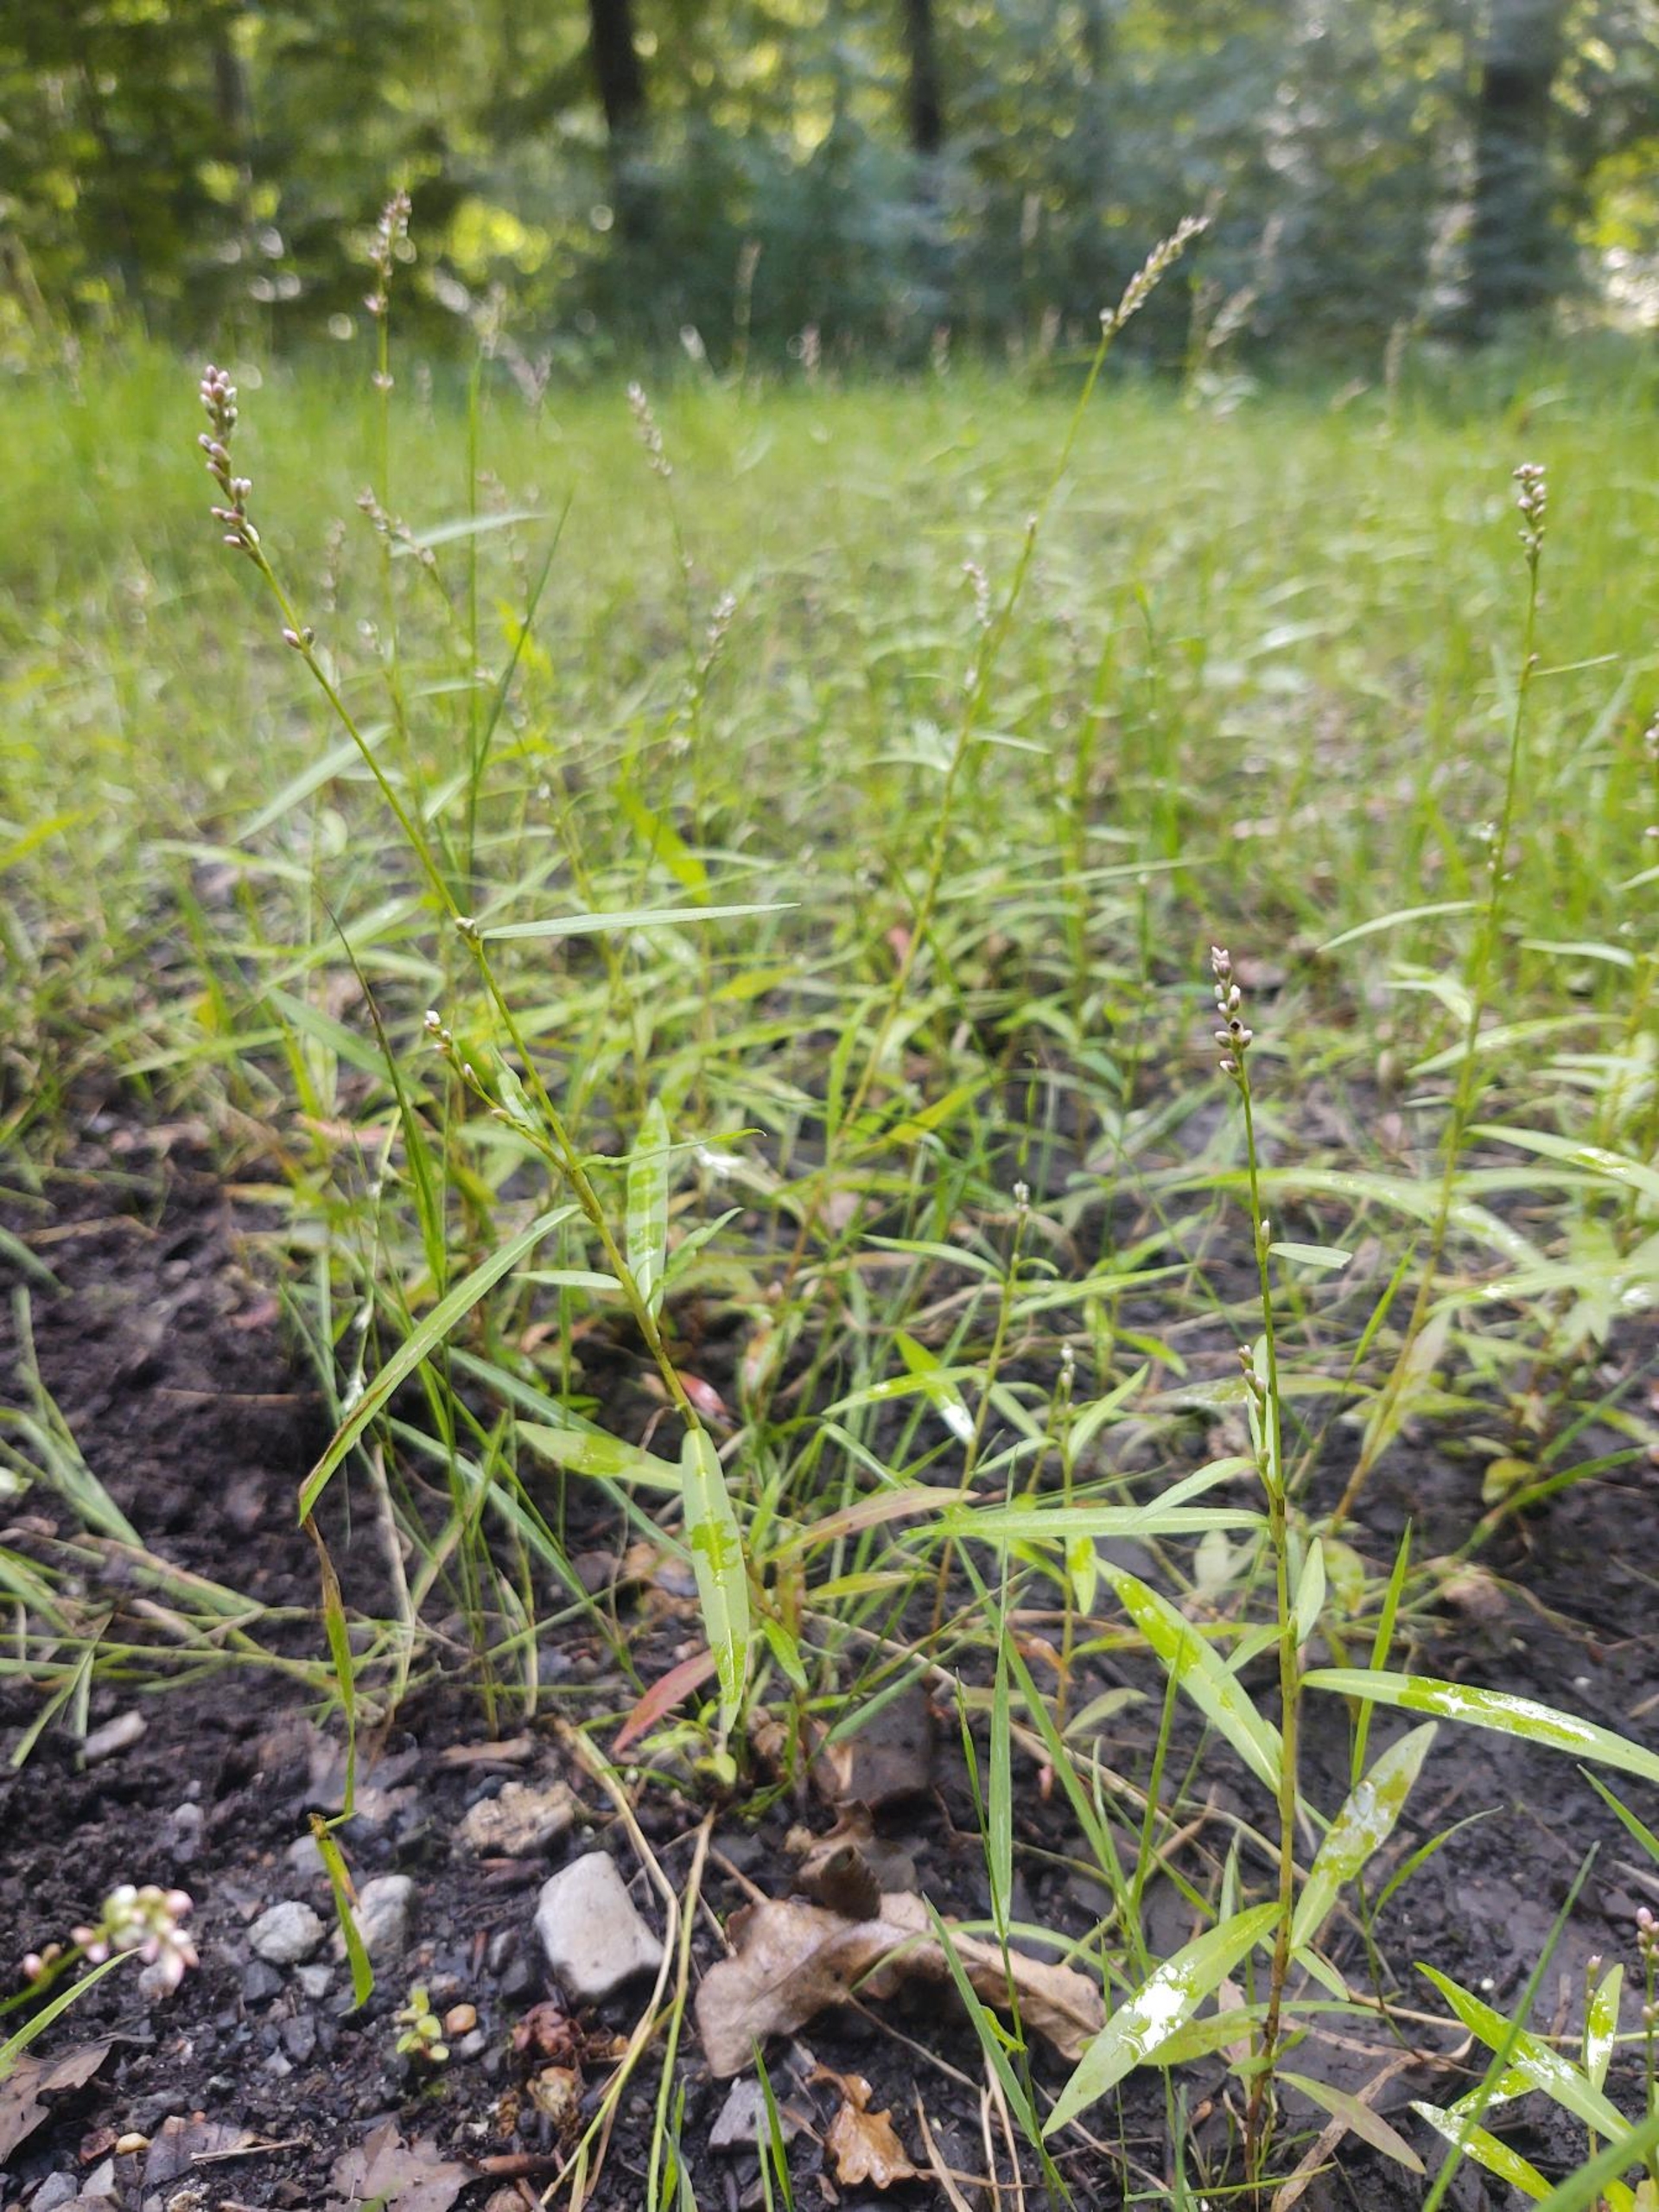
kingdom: Plantae
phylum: Tracheophyta
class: Magnoliopsida
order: Caryophyllales
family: Polygonaceae
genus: Persicaria
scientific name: Persicaria minor
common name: Liden pileurt
